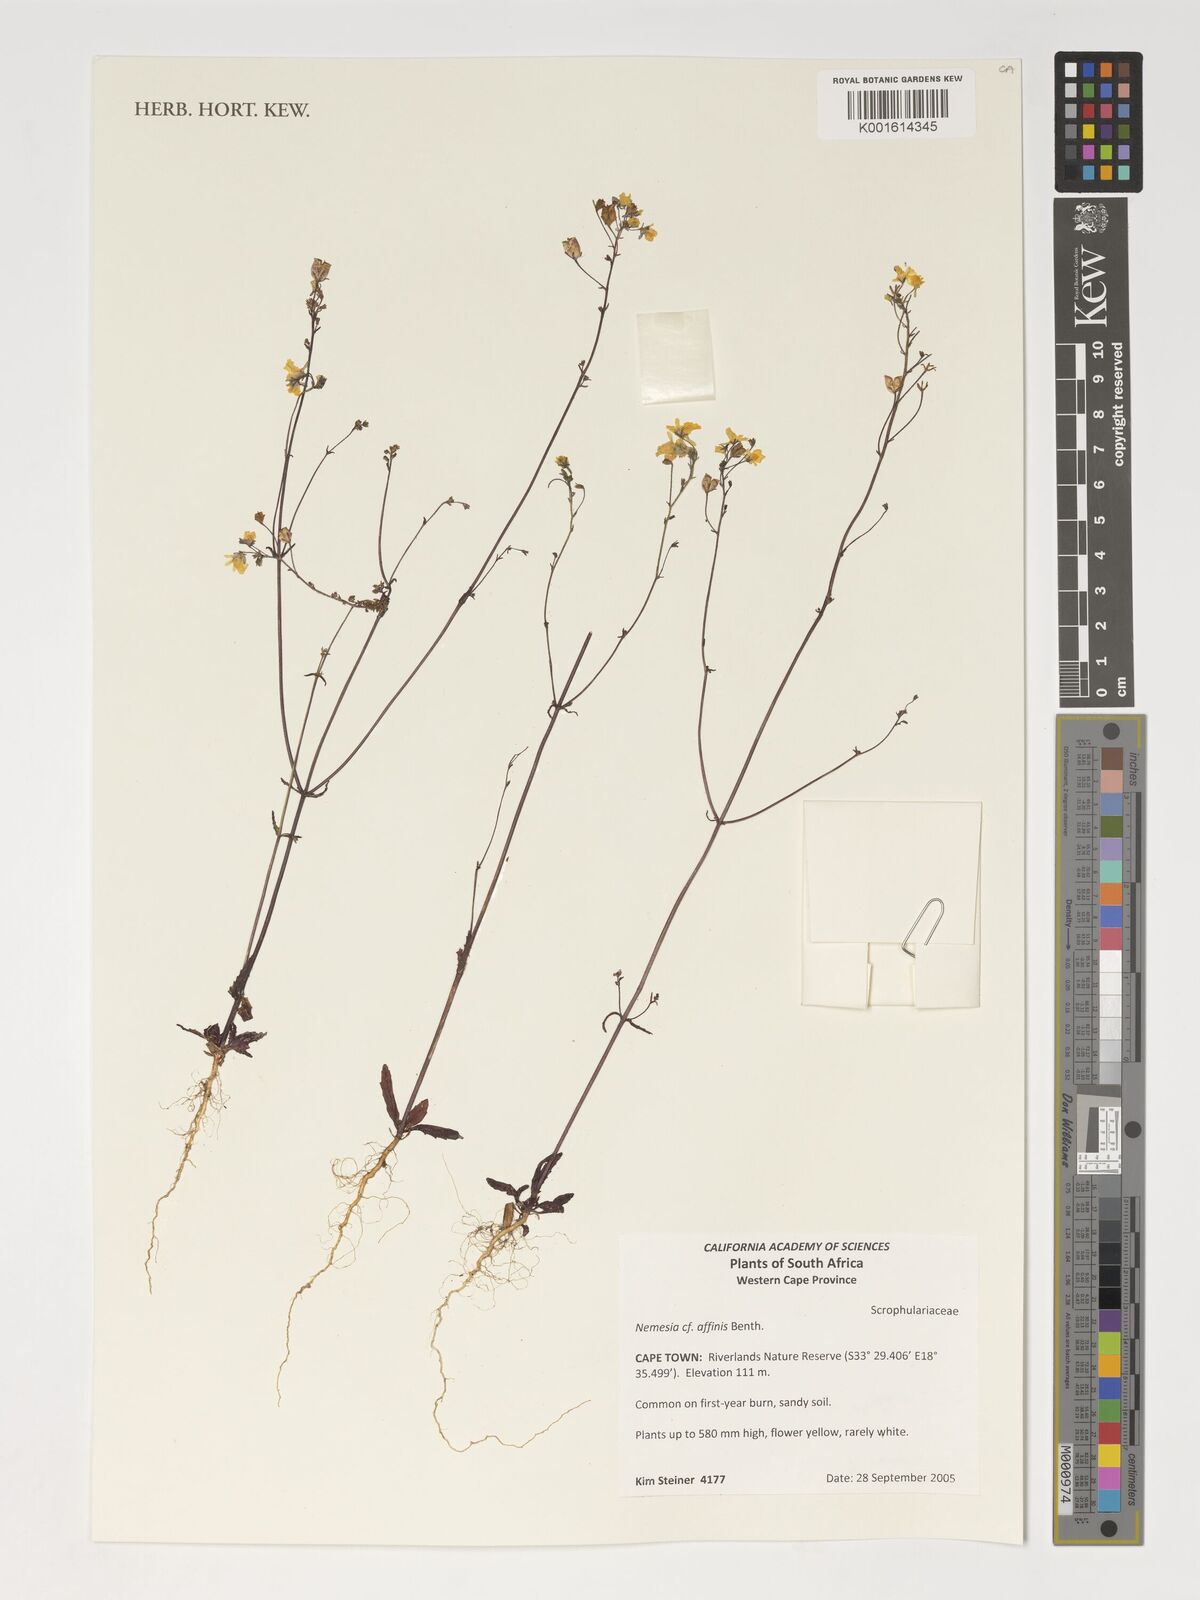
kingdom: Plantae
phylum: Tracheophyta
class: Magnoliopsida
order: Lamiales
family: Scrophulariaceae
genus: Nemesia
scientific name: Nemesia affinis
